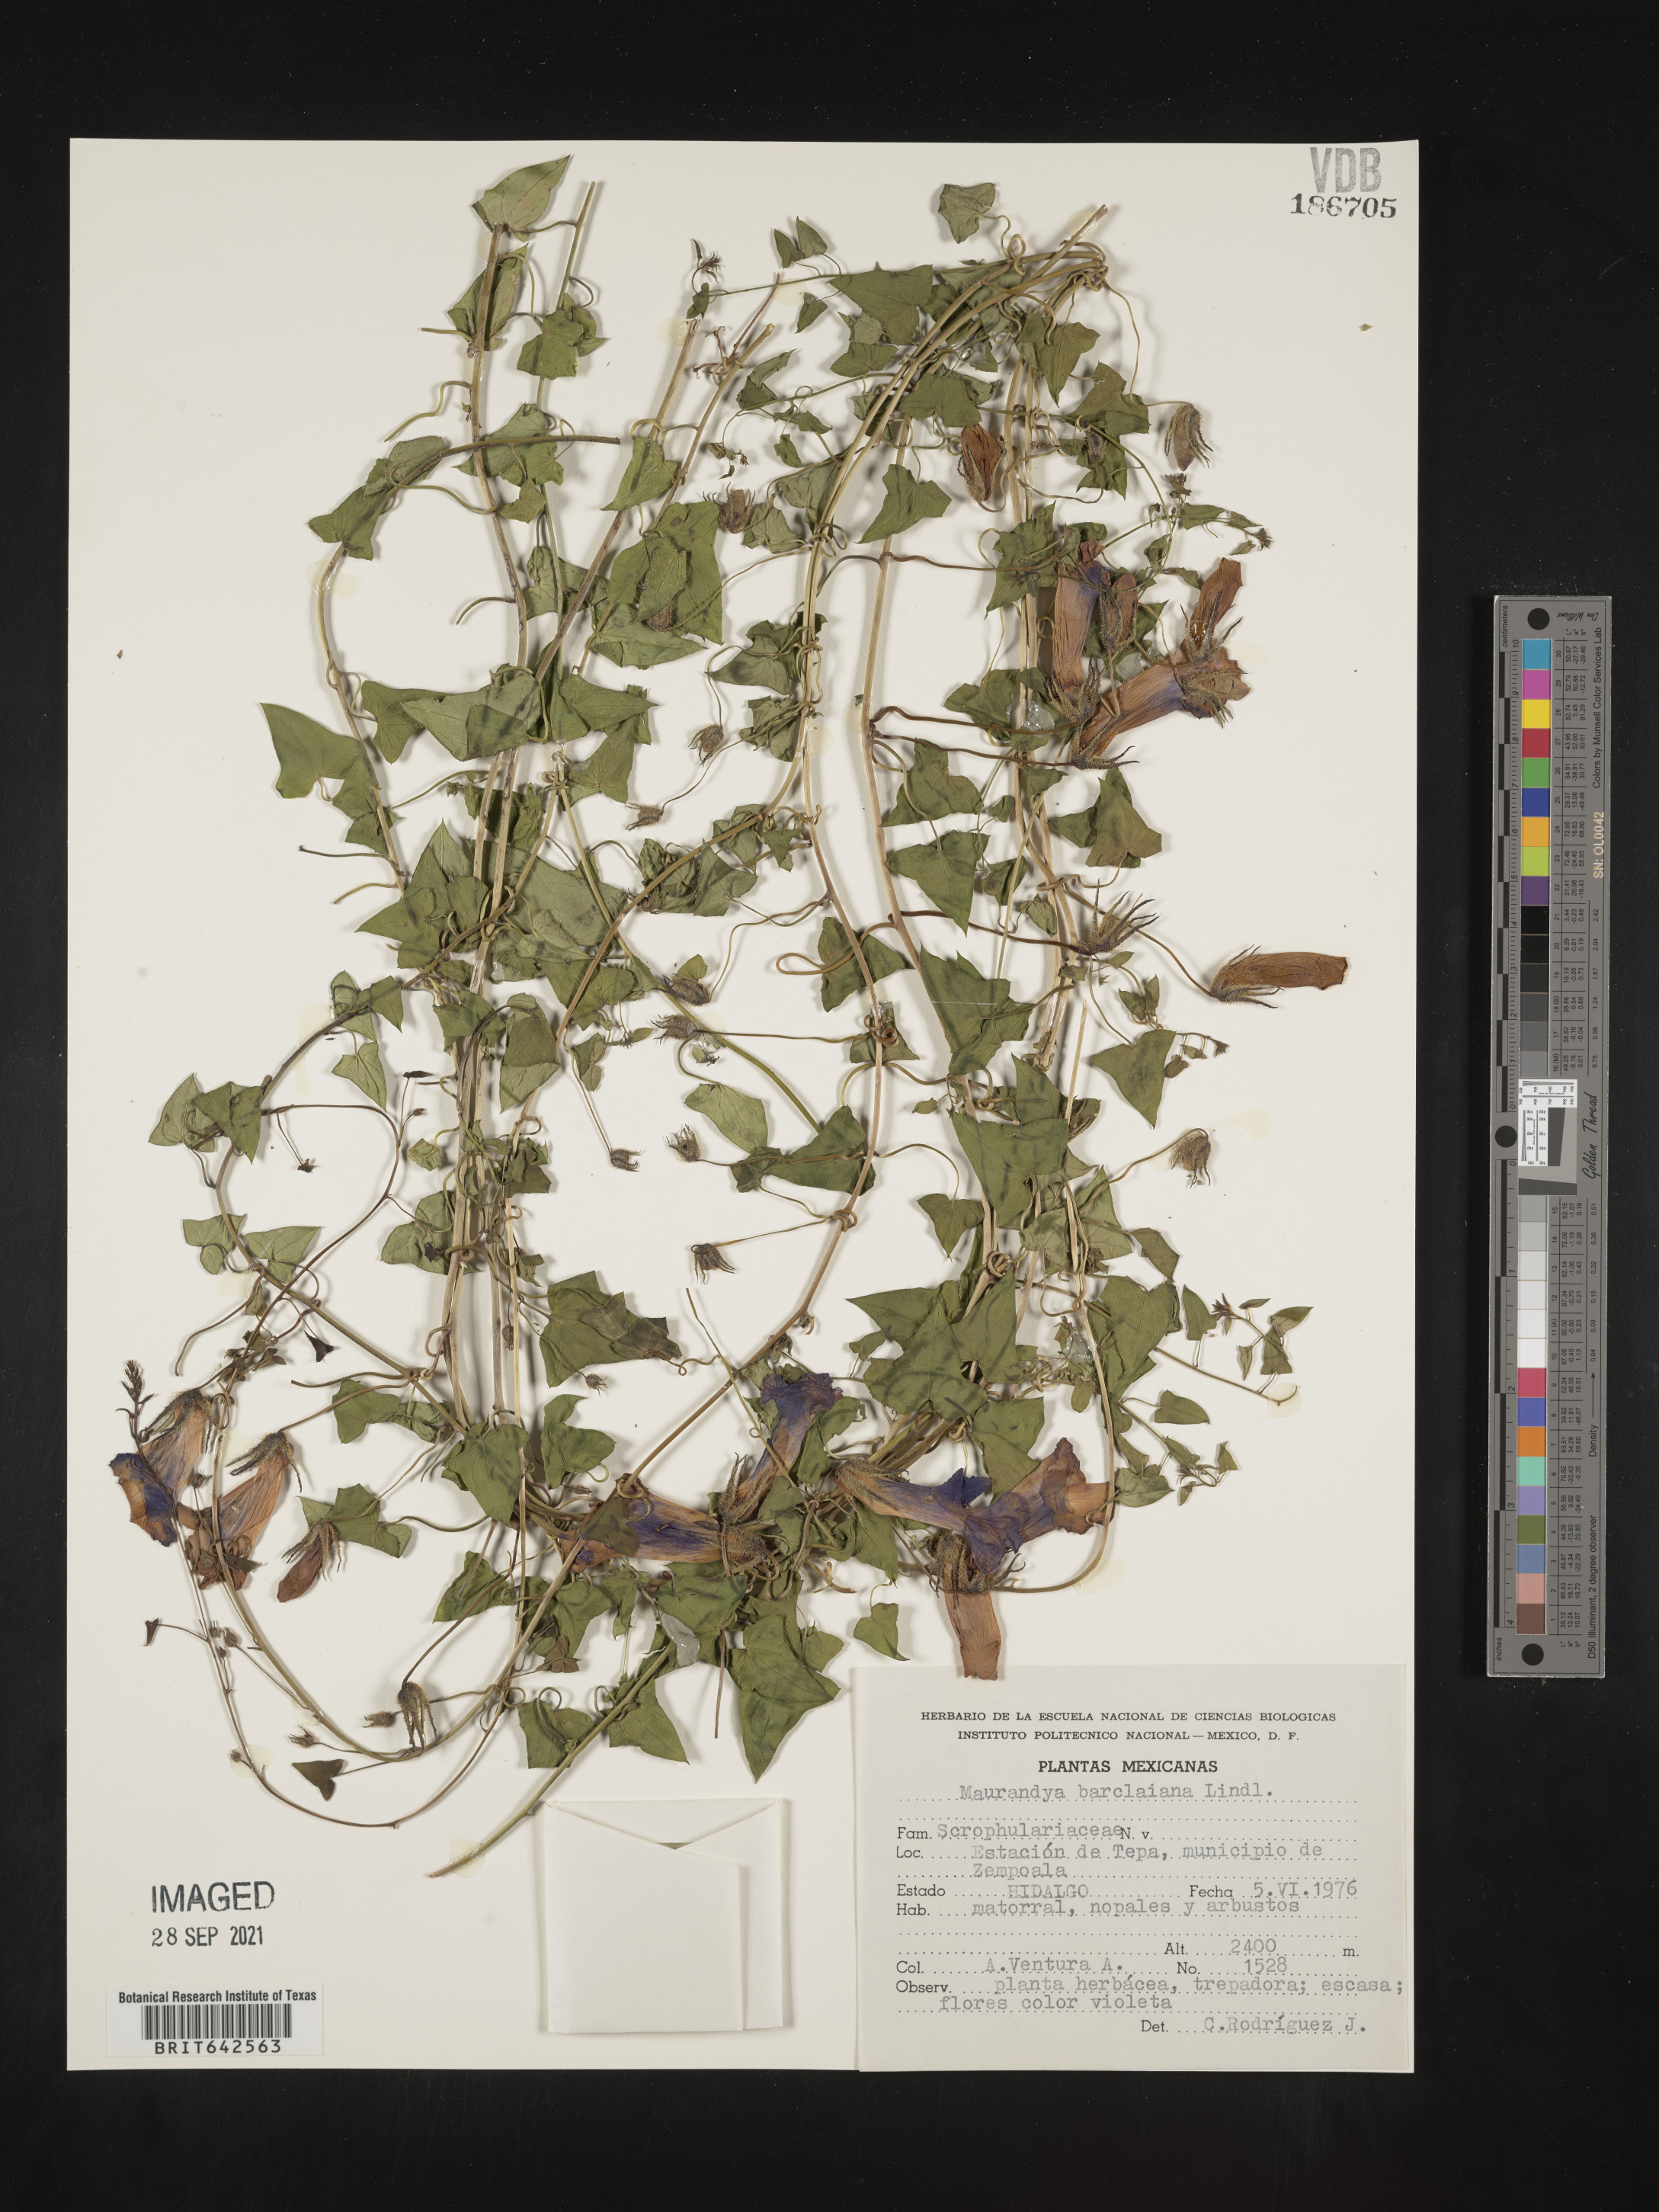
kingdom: Plantae
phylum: Tracheophyta
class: Magnoliopsida
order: Lamiales
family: Plantaginaceae
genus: Maurandya
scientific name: Maurandya
